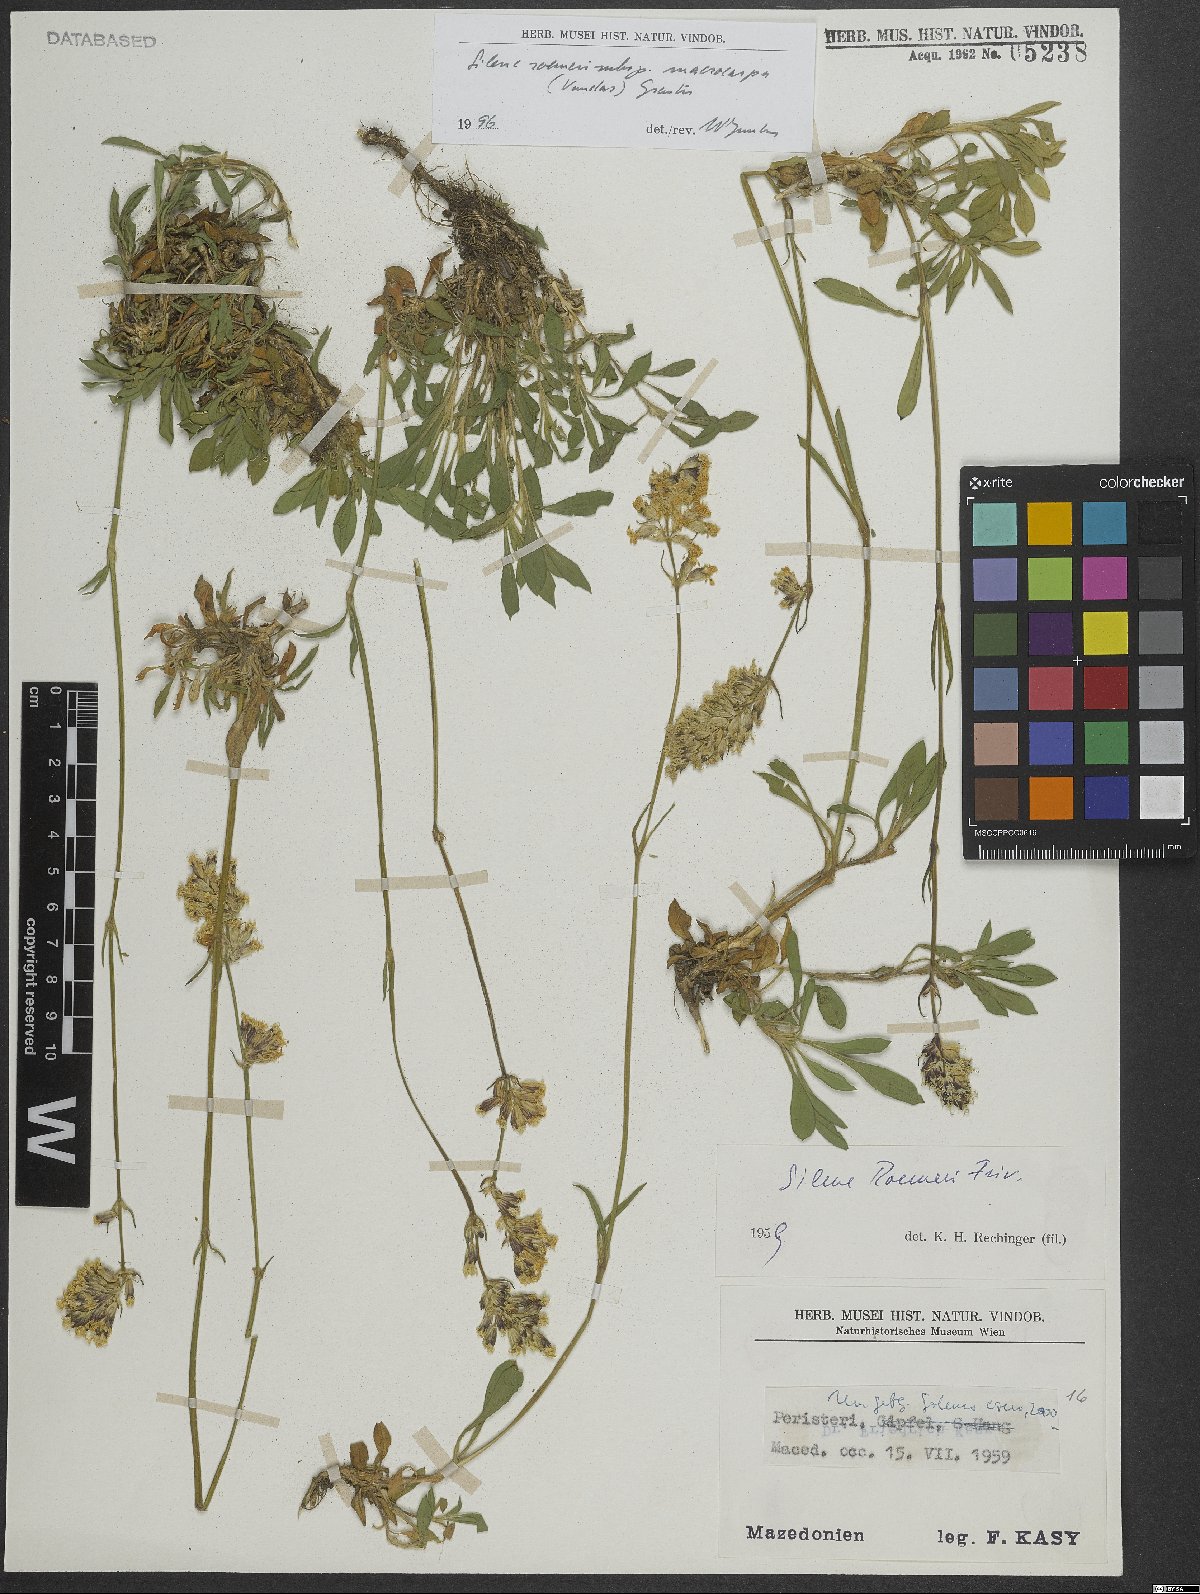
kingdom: Plantae
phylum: Tracheophyta
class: Magnoliopsida
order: Caryophyllales
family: Caryophyllaceae
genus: Silene
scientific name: Silene roemeri
